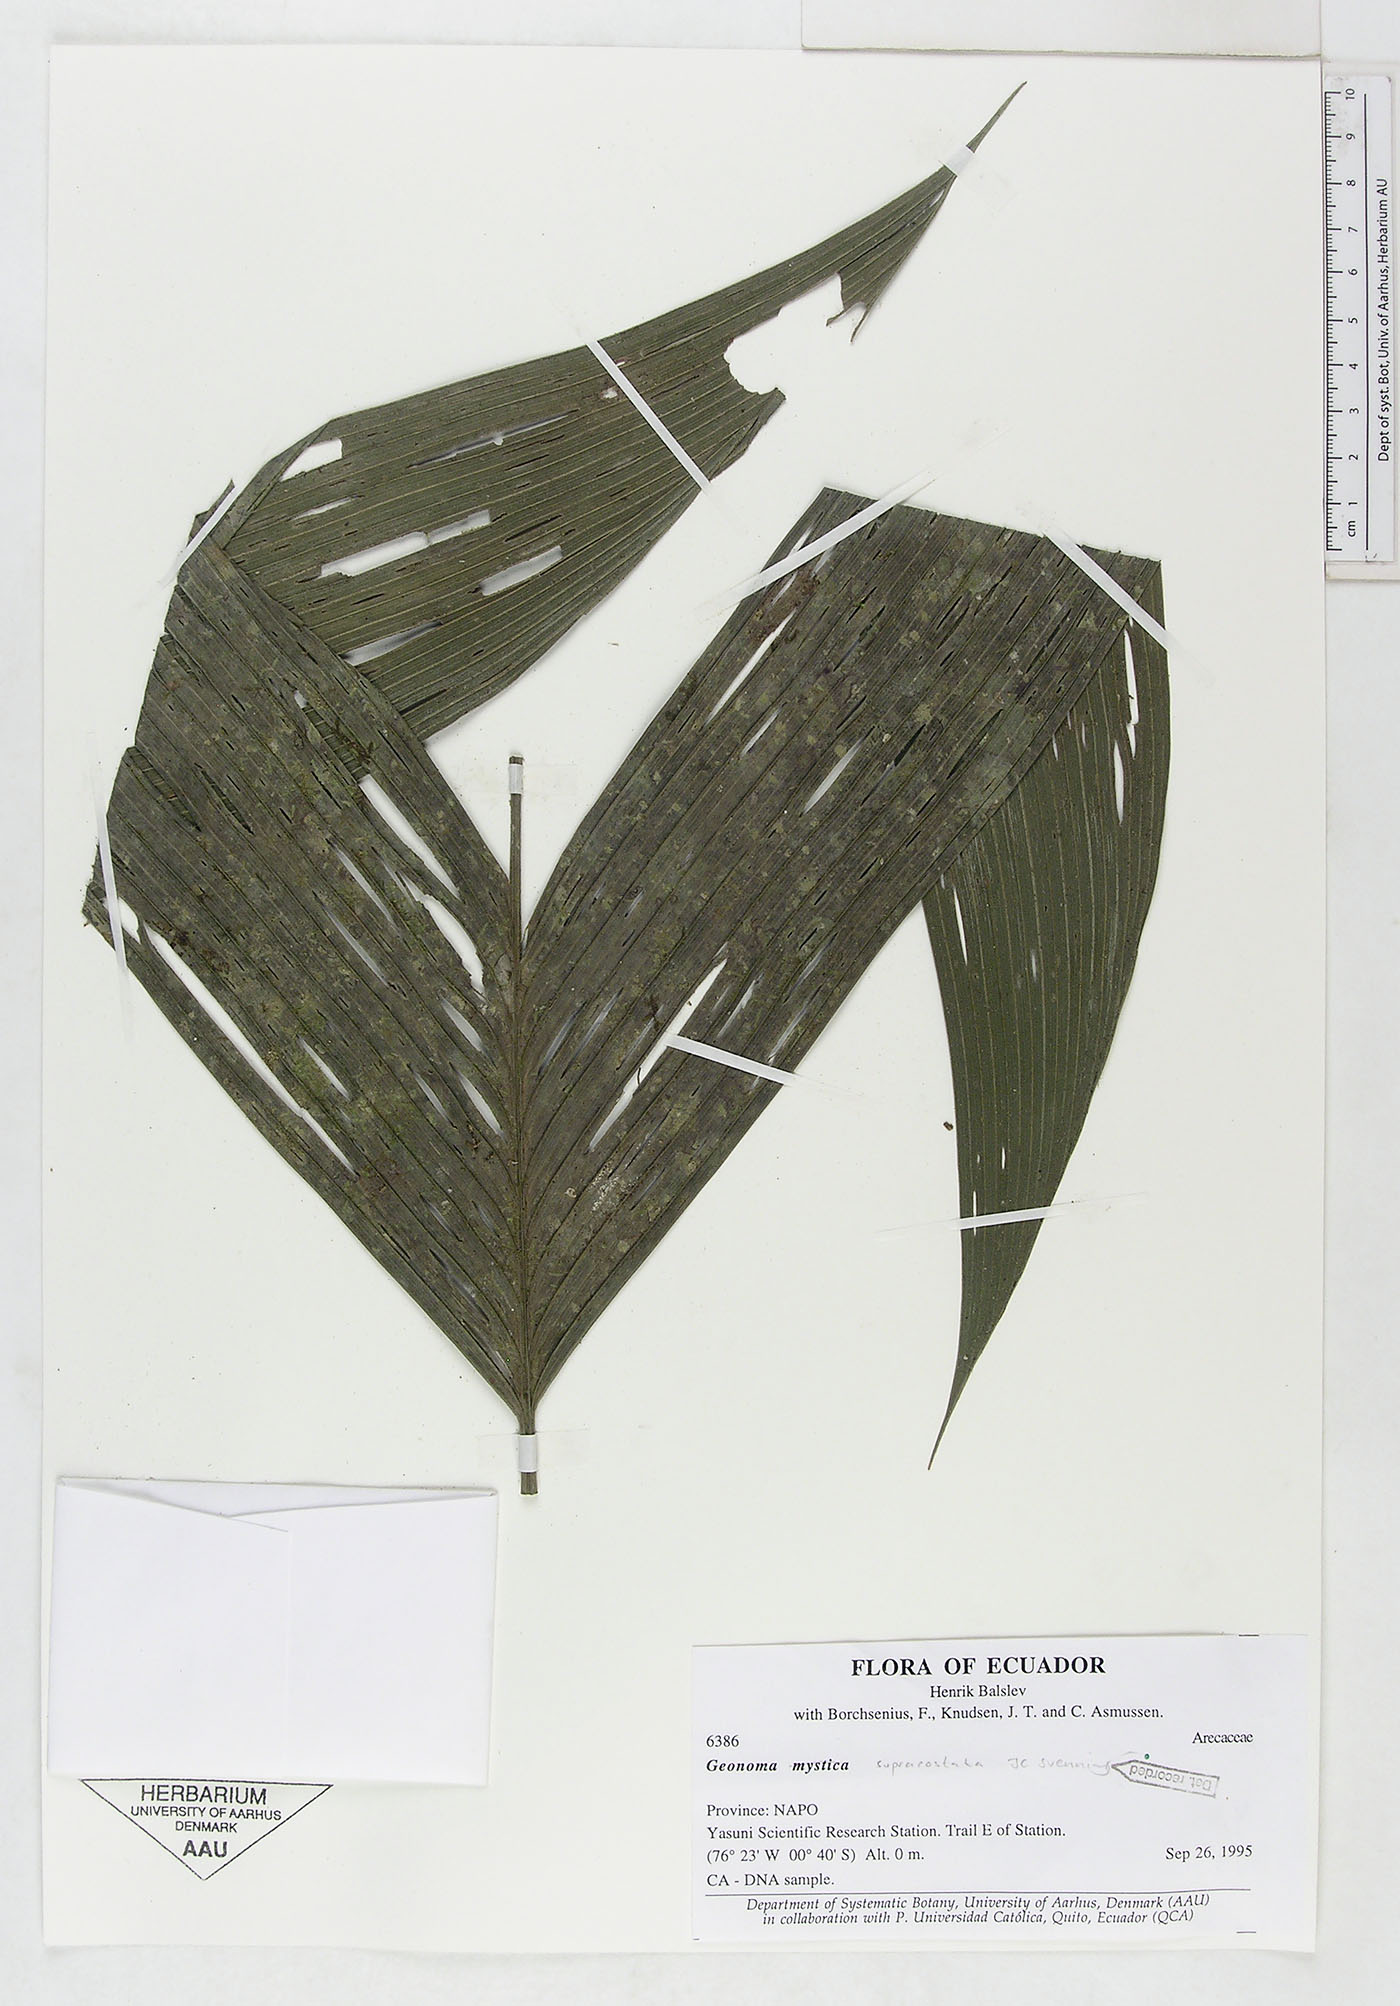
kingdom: Plantae
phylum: Tracheophyta
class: Liliopsida
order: Arecales
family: Arecaceae
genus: Geonoma
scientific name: Geonoma macrostachys
